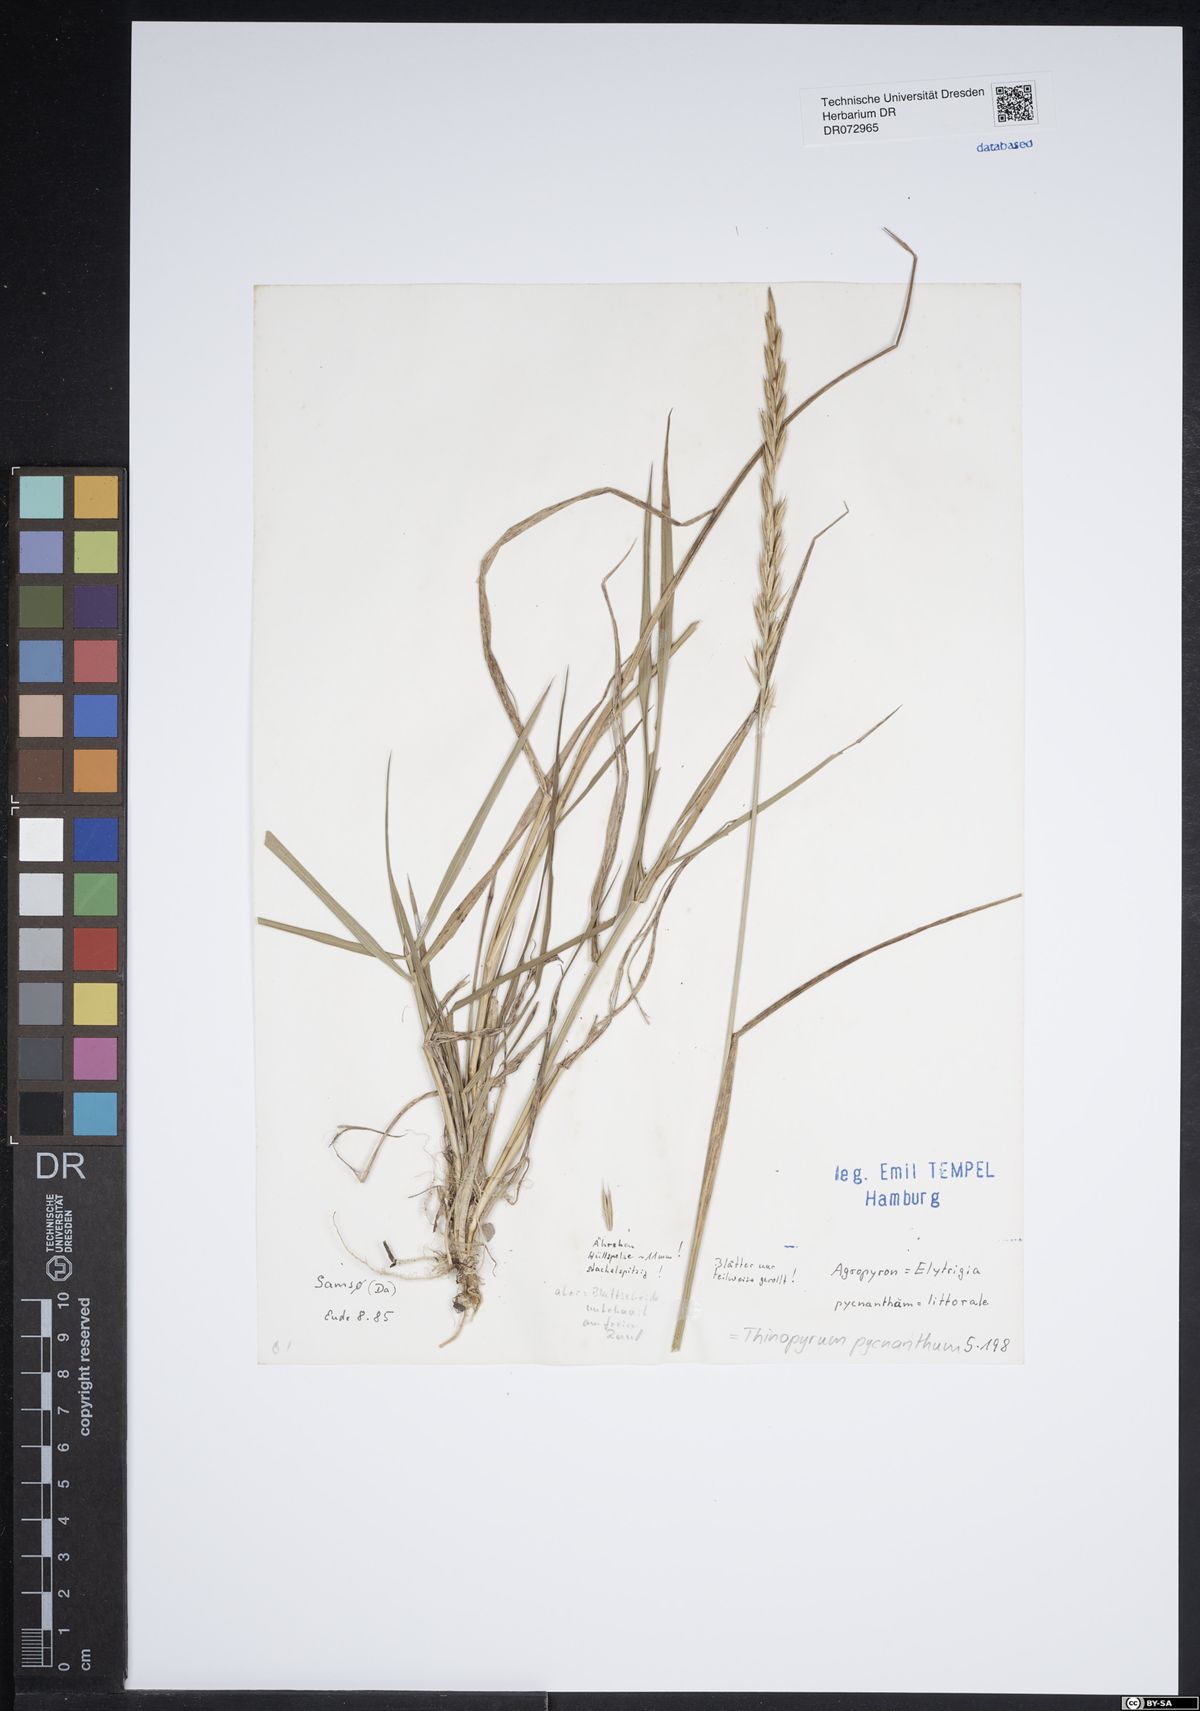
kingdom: Plantae
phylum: Tracheophyta
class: Liliopsida
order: Poales
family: Poaceae
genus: Thinopyrum
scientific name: Thinopyrum acutum
